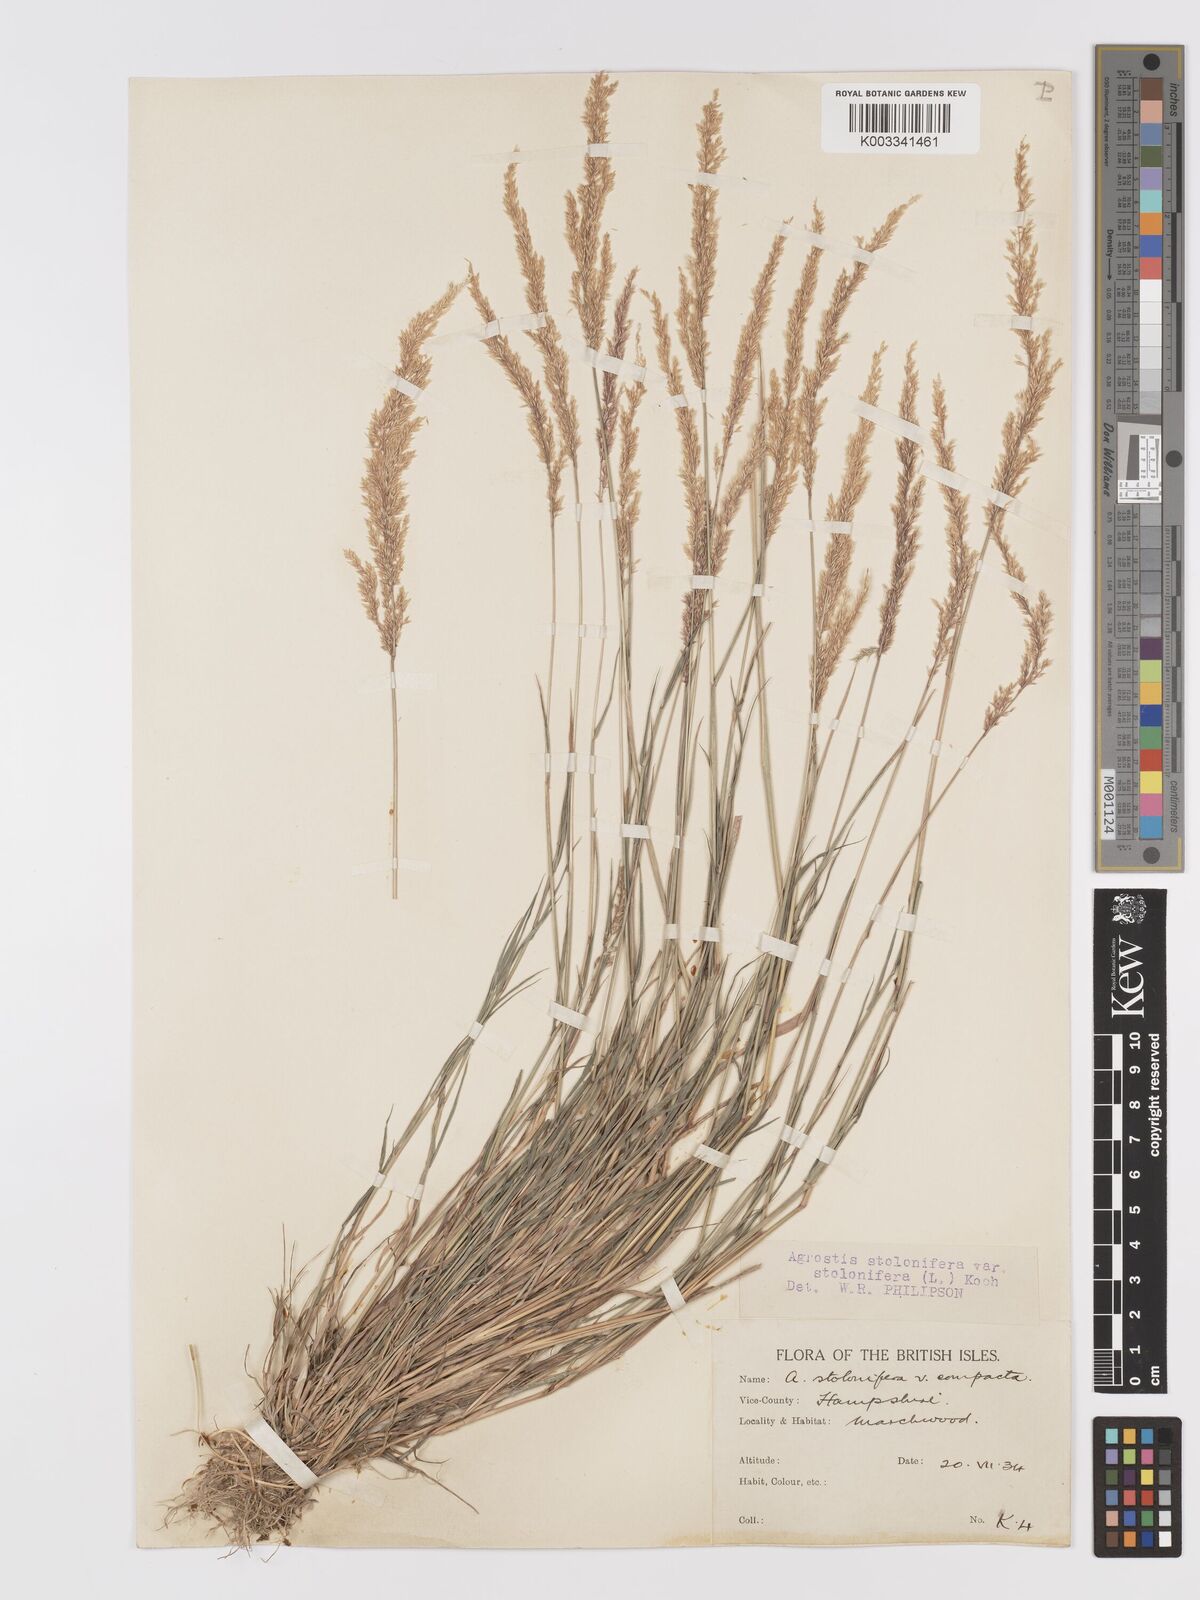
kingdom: Plantae
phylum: Tracheophyta
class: Liliopsida
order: Poales
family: Poaceae
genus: Agrostis
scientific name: Agrostis stolonifera
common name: Creeping bentgrass
